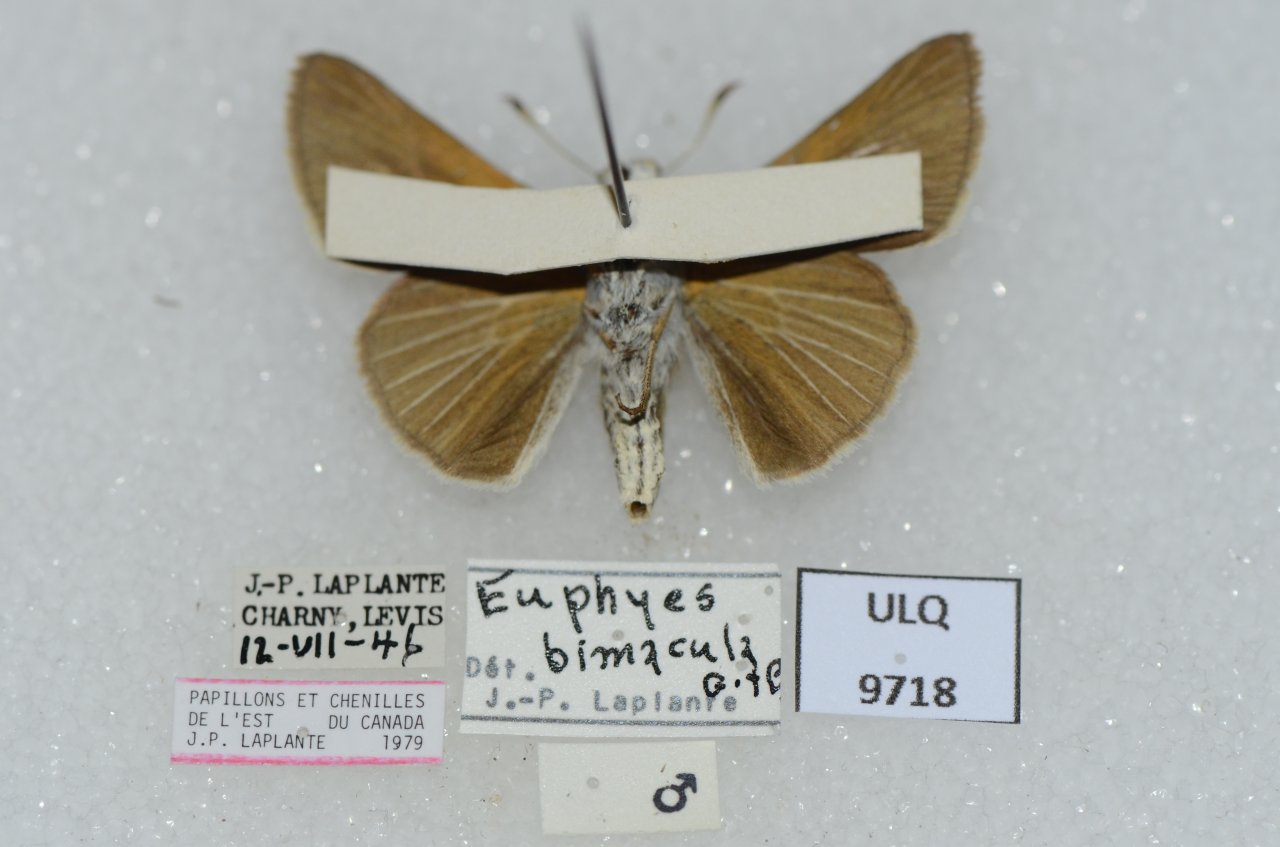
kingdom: Animalia
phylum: Arthropoda
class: Insecta
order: Lepidoptera
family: Hesperiidae
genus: Euphyes
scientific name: Euphyes bimacula
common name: Two-spotted Skipper
